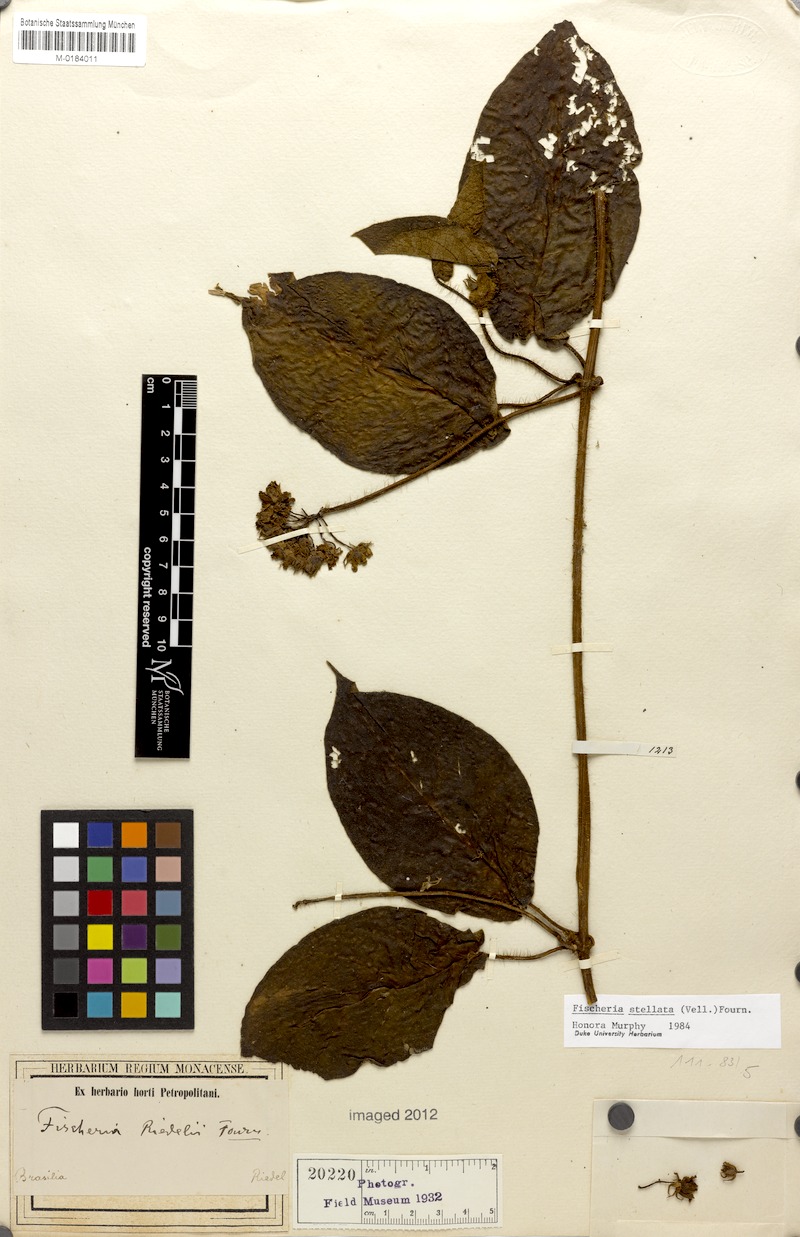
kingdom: Plantae
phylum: Tracheophyta
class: Magnoliopsida
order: Gentianales
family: Apocynaceae
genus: Fischeria
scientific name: Fischeria stellata
